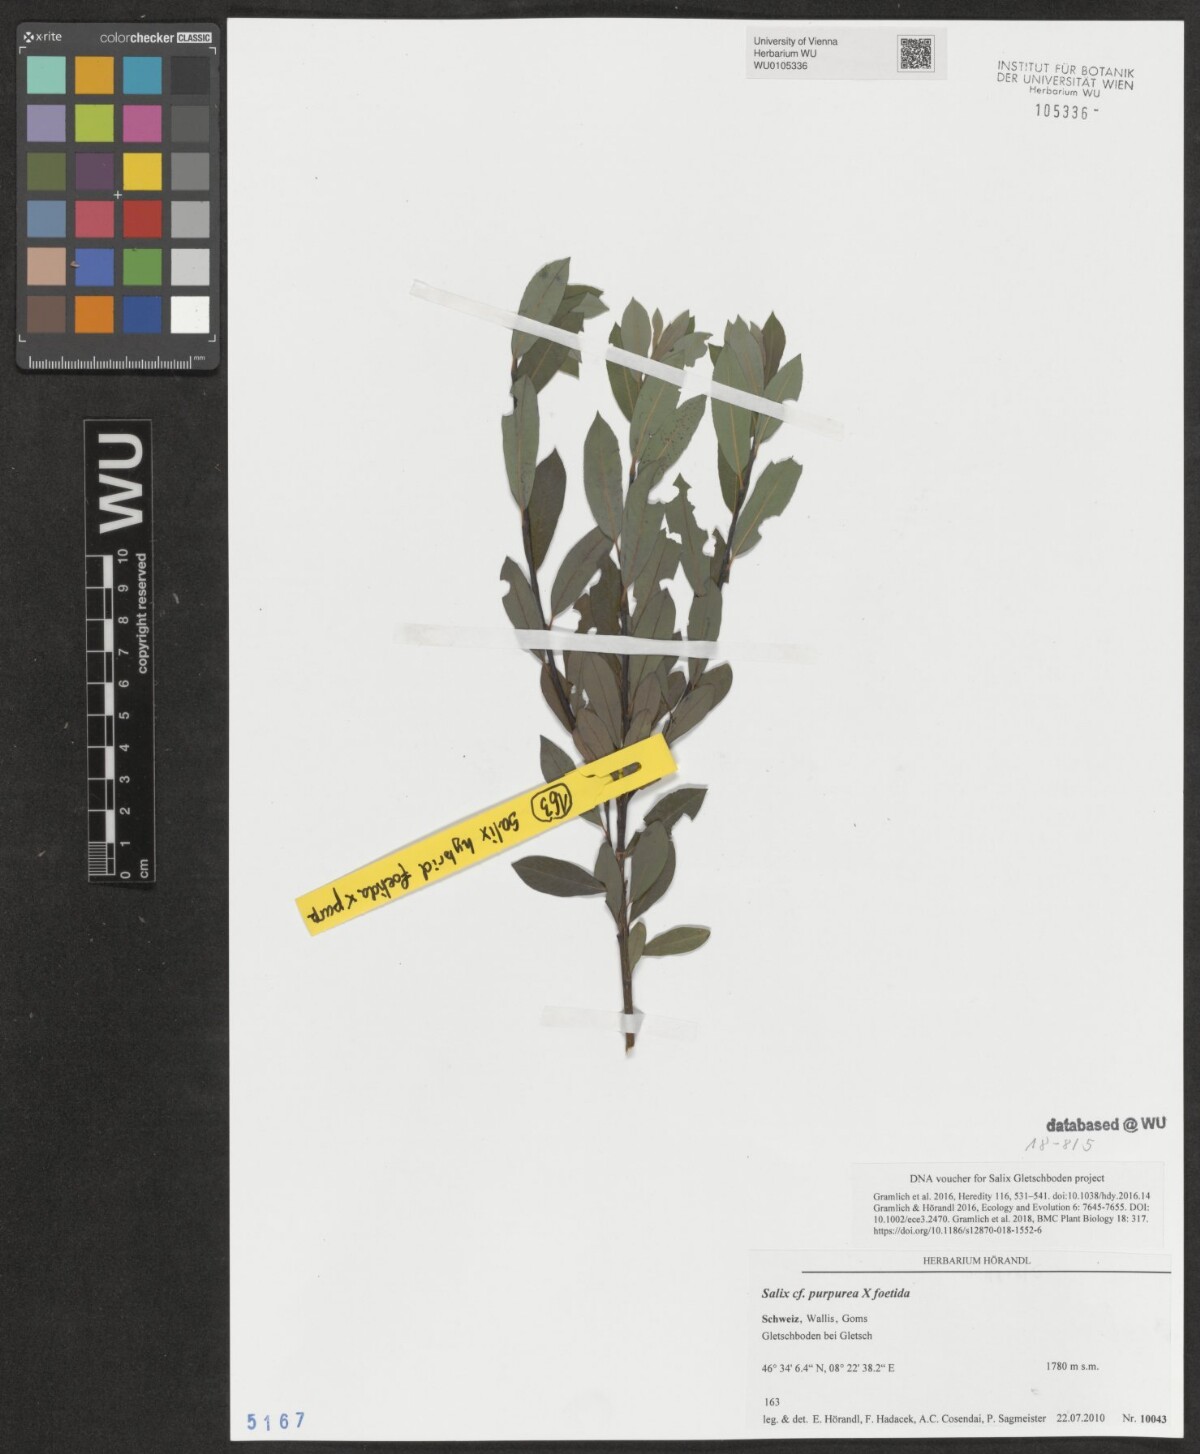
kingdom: Plantae
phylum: Tracheophyta
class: Magnoliopsida
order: Malpighiales
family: Salicaceae
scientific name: Salicaceae
